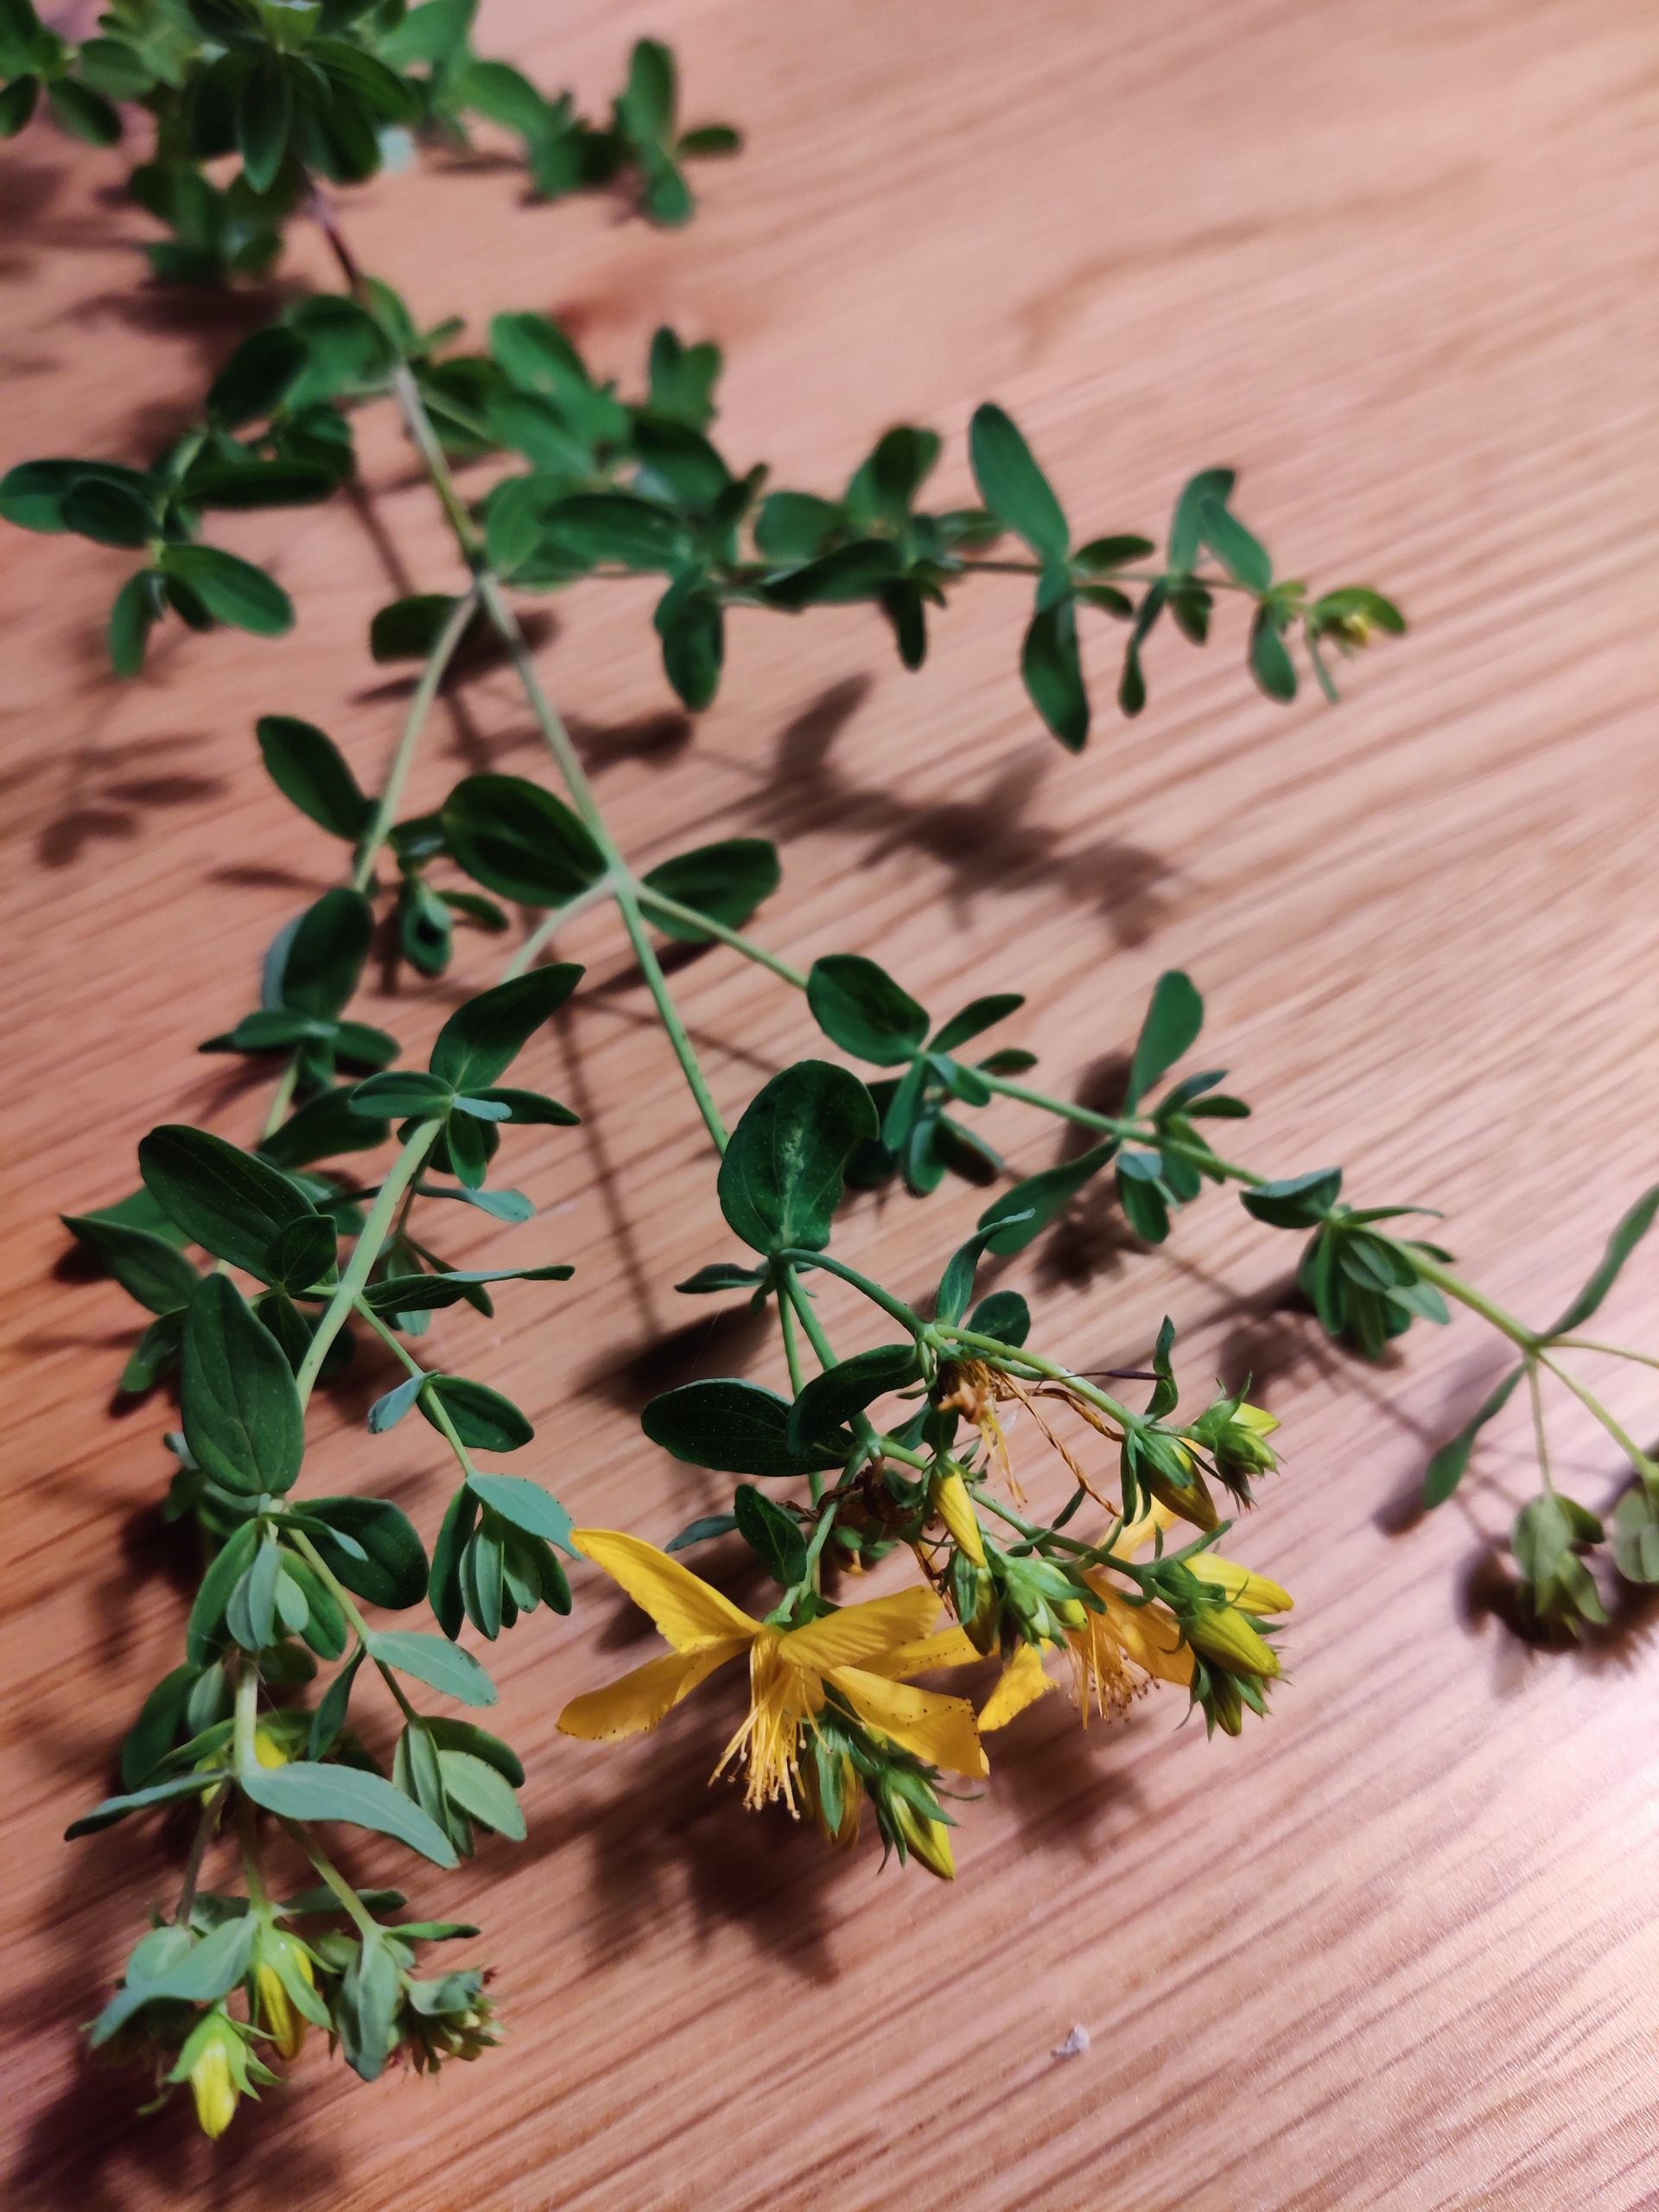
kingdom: Plantae
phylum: Tracheophyta
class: Magnoliopsida
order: Malpighiales
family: Hypericaceae
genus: Hypericum
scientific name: Hypericum perforatum
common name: Prikbladet perikon
